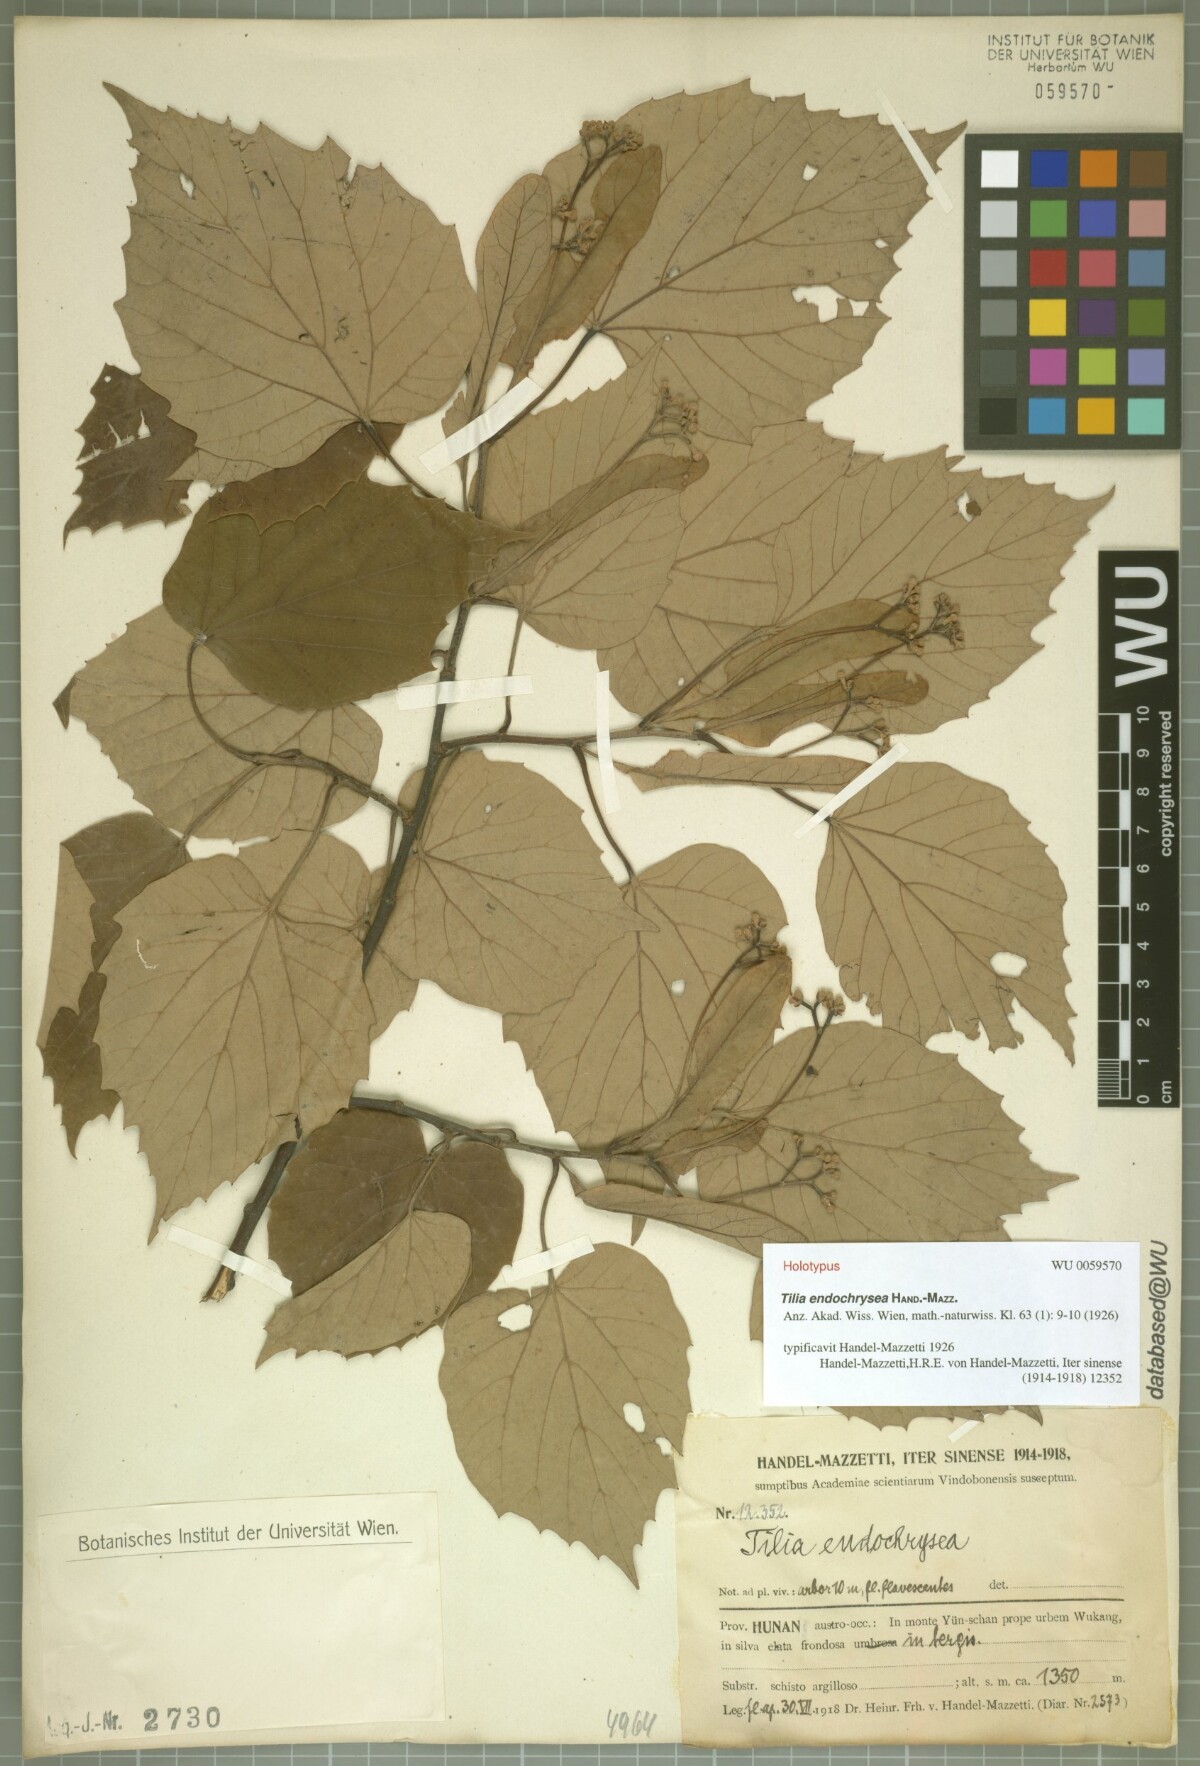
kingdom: Plantae
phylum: Tracheophyta
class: Magnoliopsida
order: Malvales
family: Malvaceae
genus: Tilia
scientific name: Tilia endochrysea
